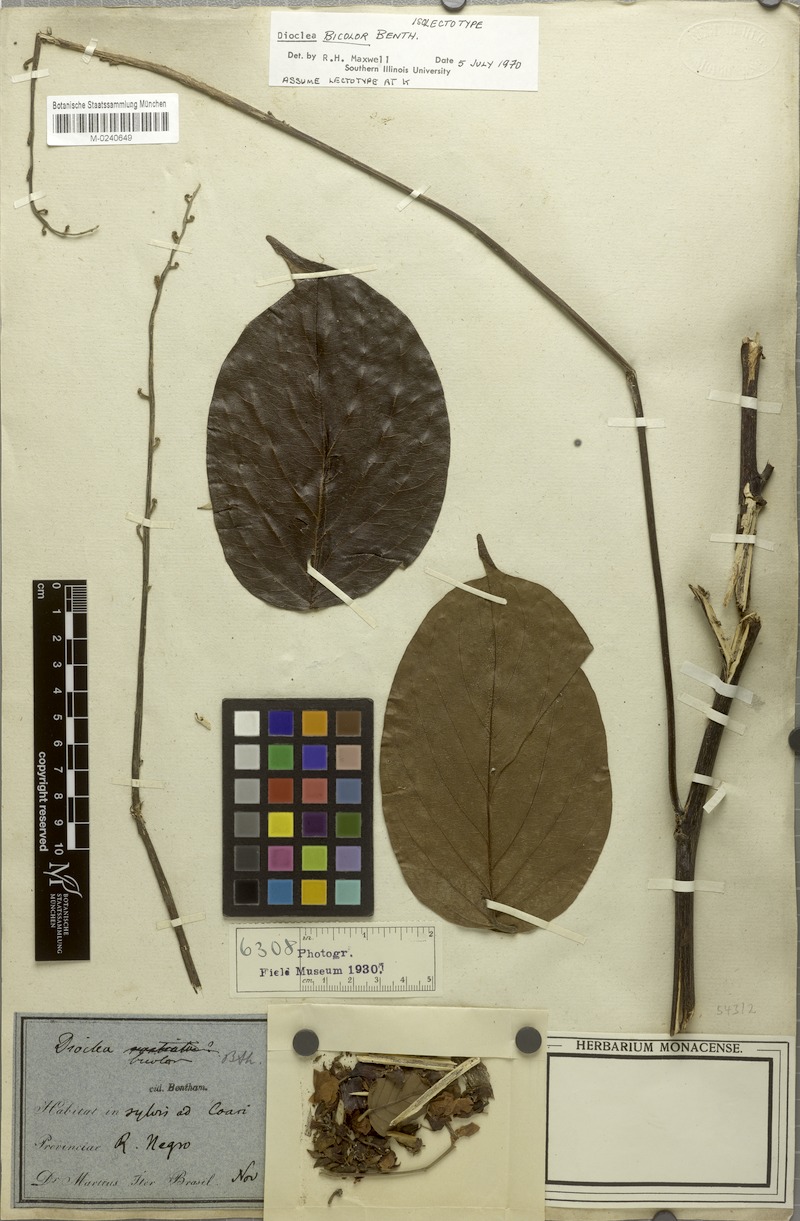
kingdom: Plantae
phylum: Tracheophyta
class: Magnoliopsida
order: Fabales
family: Fabaceae
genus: Macropsychanthus
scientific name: Macropsychanthus bicolor
